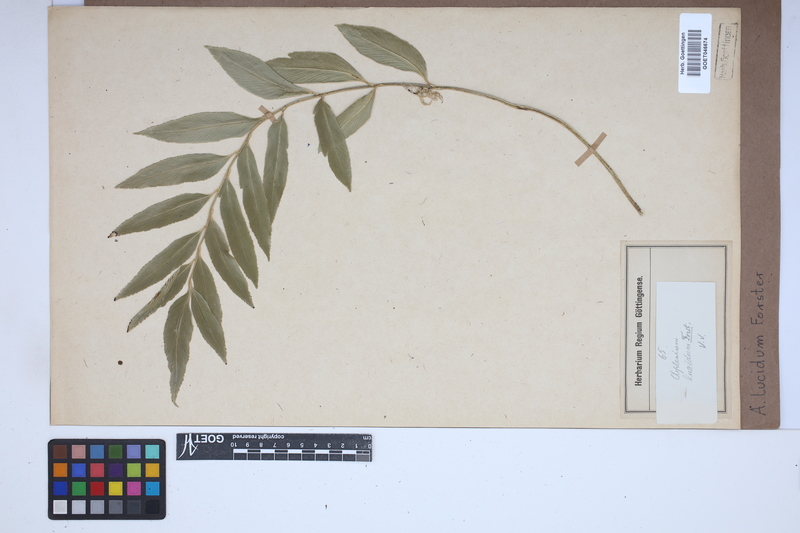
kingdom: Plantae
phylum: Tracheophyta
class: Polypodiopsida
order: Polypodiales
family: Aspleniaceae
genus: Asplenium
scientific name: Asplenium
